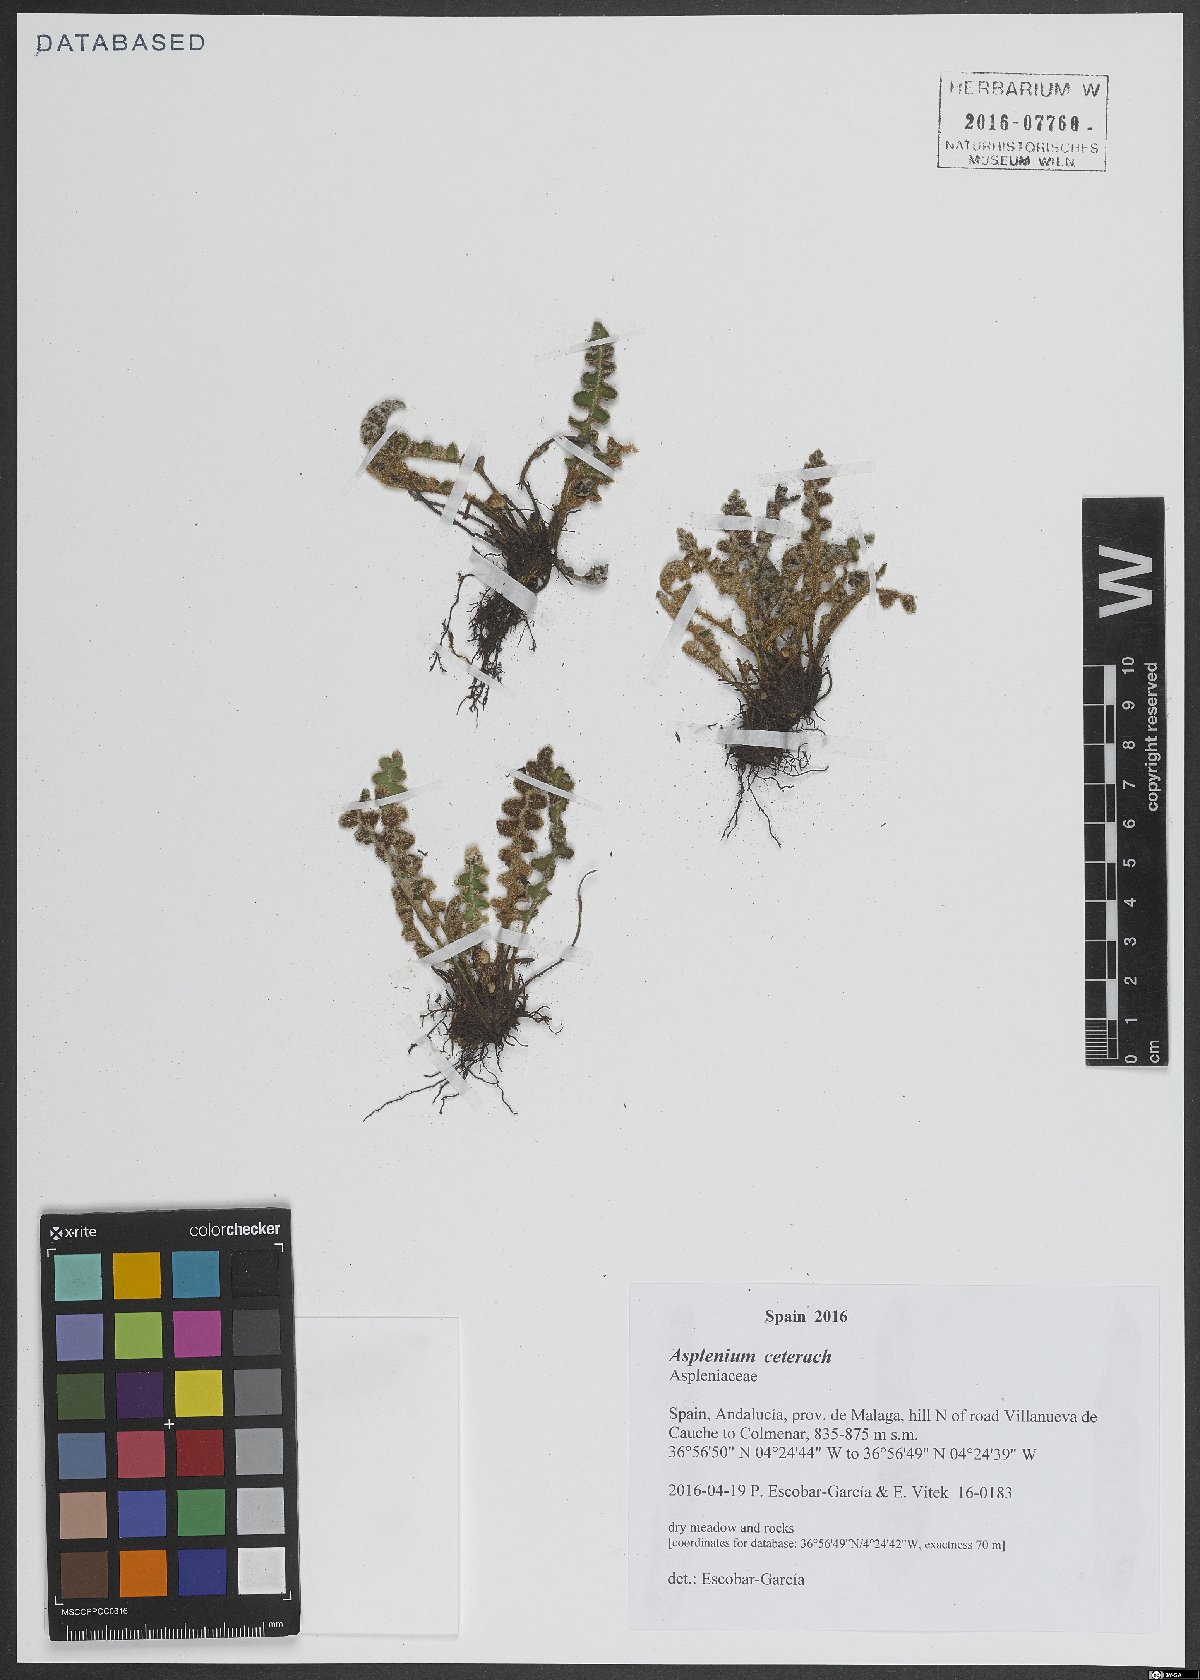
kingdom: Plantae
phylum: Tracheophyta
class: Polypodiopsida
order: Polypodiales
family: Aspleniaceae
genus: Asplenium
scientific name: Asplenium ceterach
